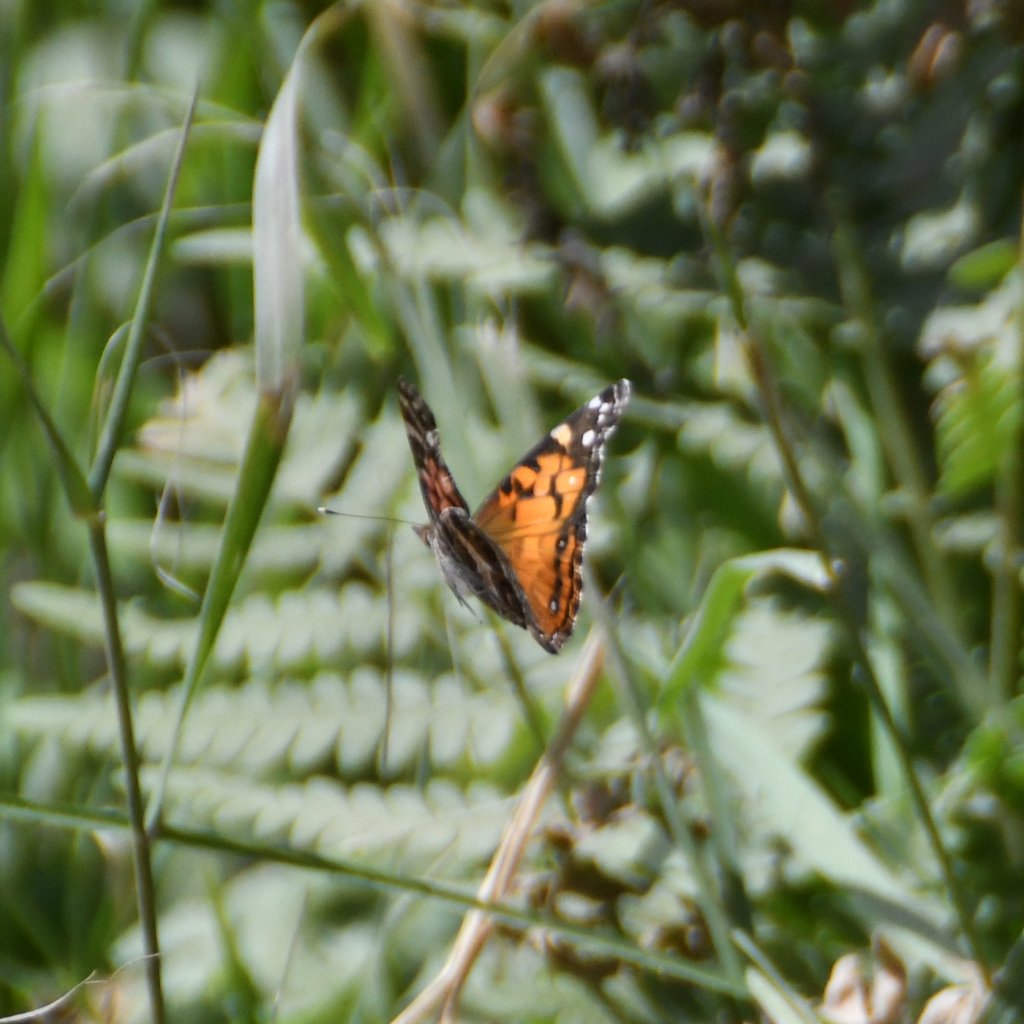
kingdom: Animalia
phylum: Arthropoda
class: Insecta
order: Lepidoptera
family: Nymphalidae
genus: Vanessa
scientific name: Vanessa virginiensis
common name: American Lady
